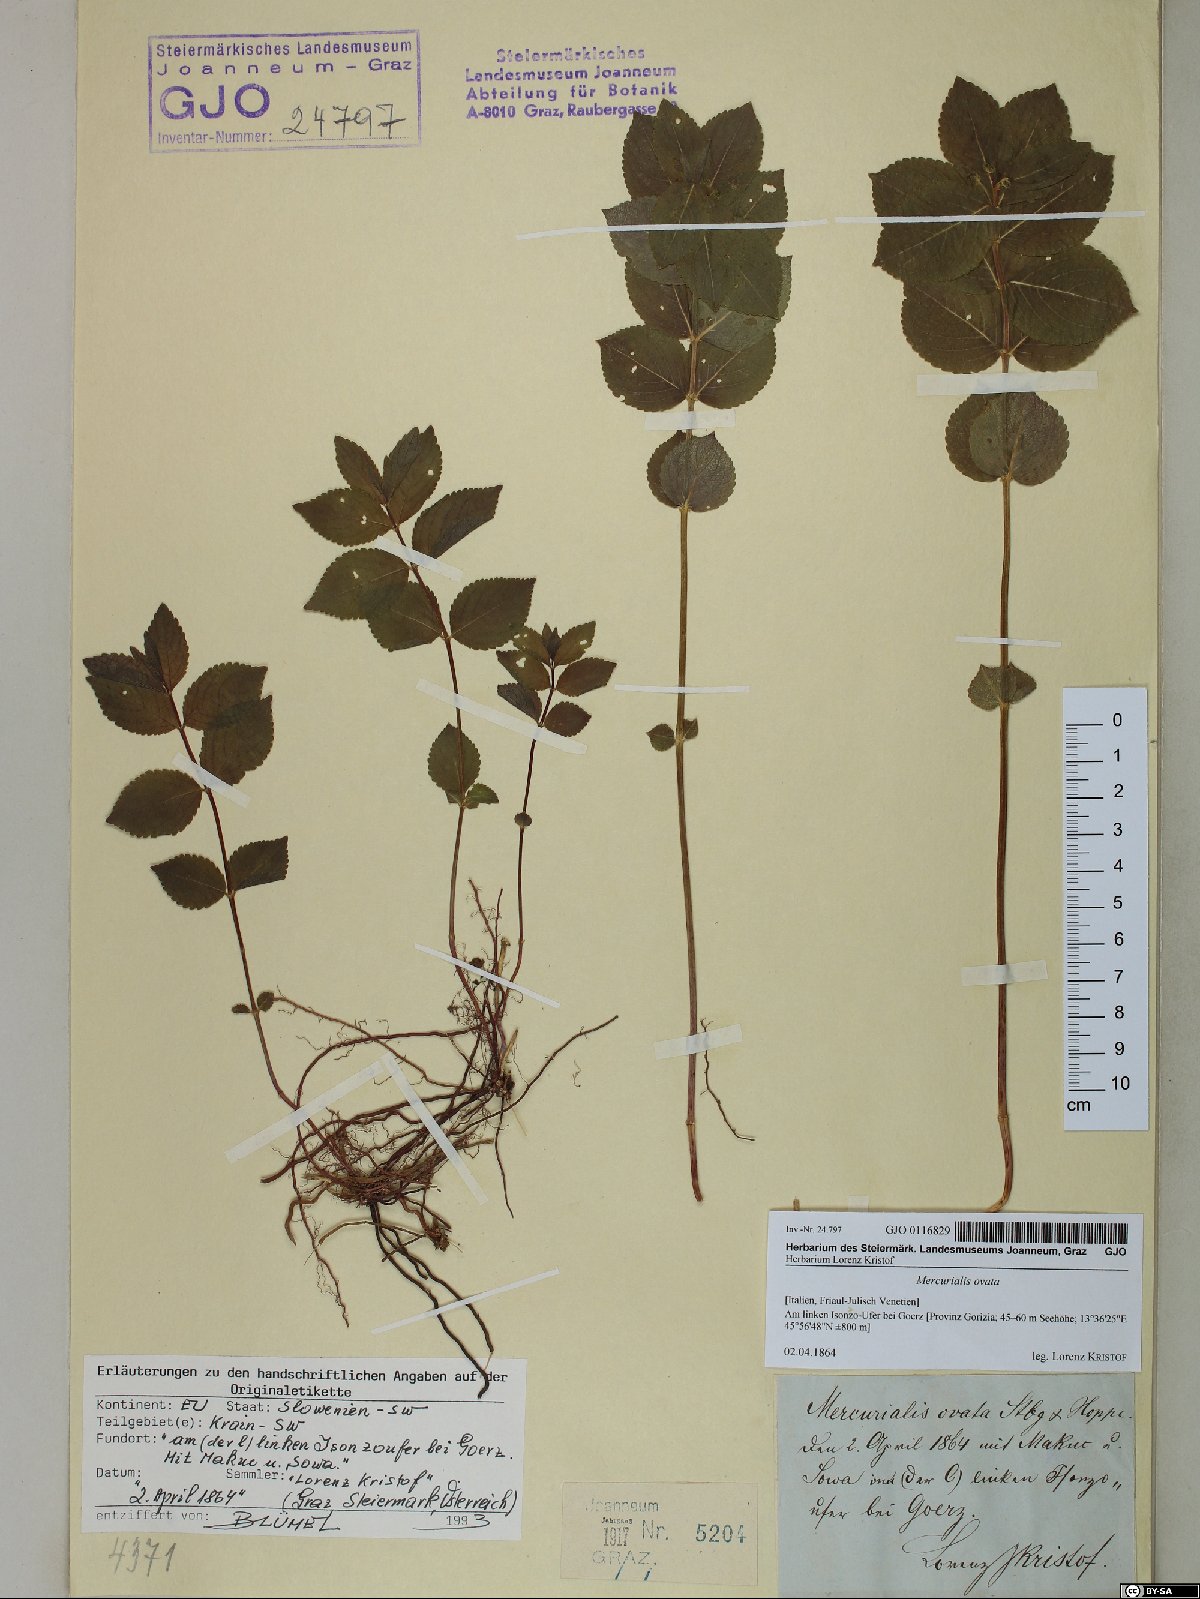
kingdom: Plantae
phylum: Tracheophyta
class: Magnoliopsida
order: Malpighiales
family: Euphorbiaceae
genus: Mercurialis
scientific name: Mercurialis ovata
